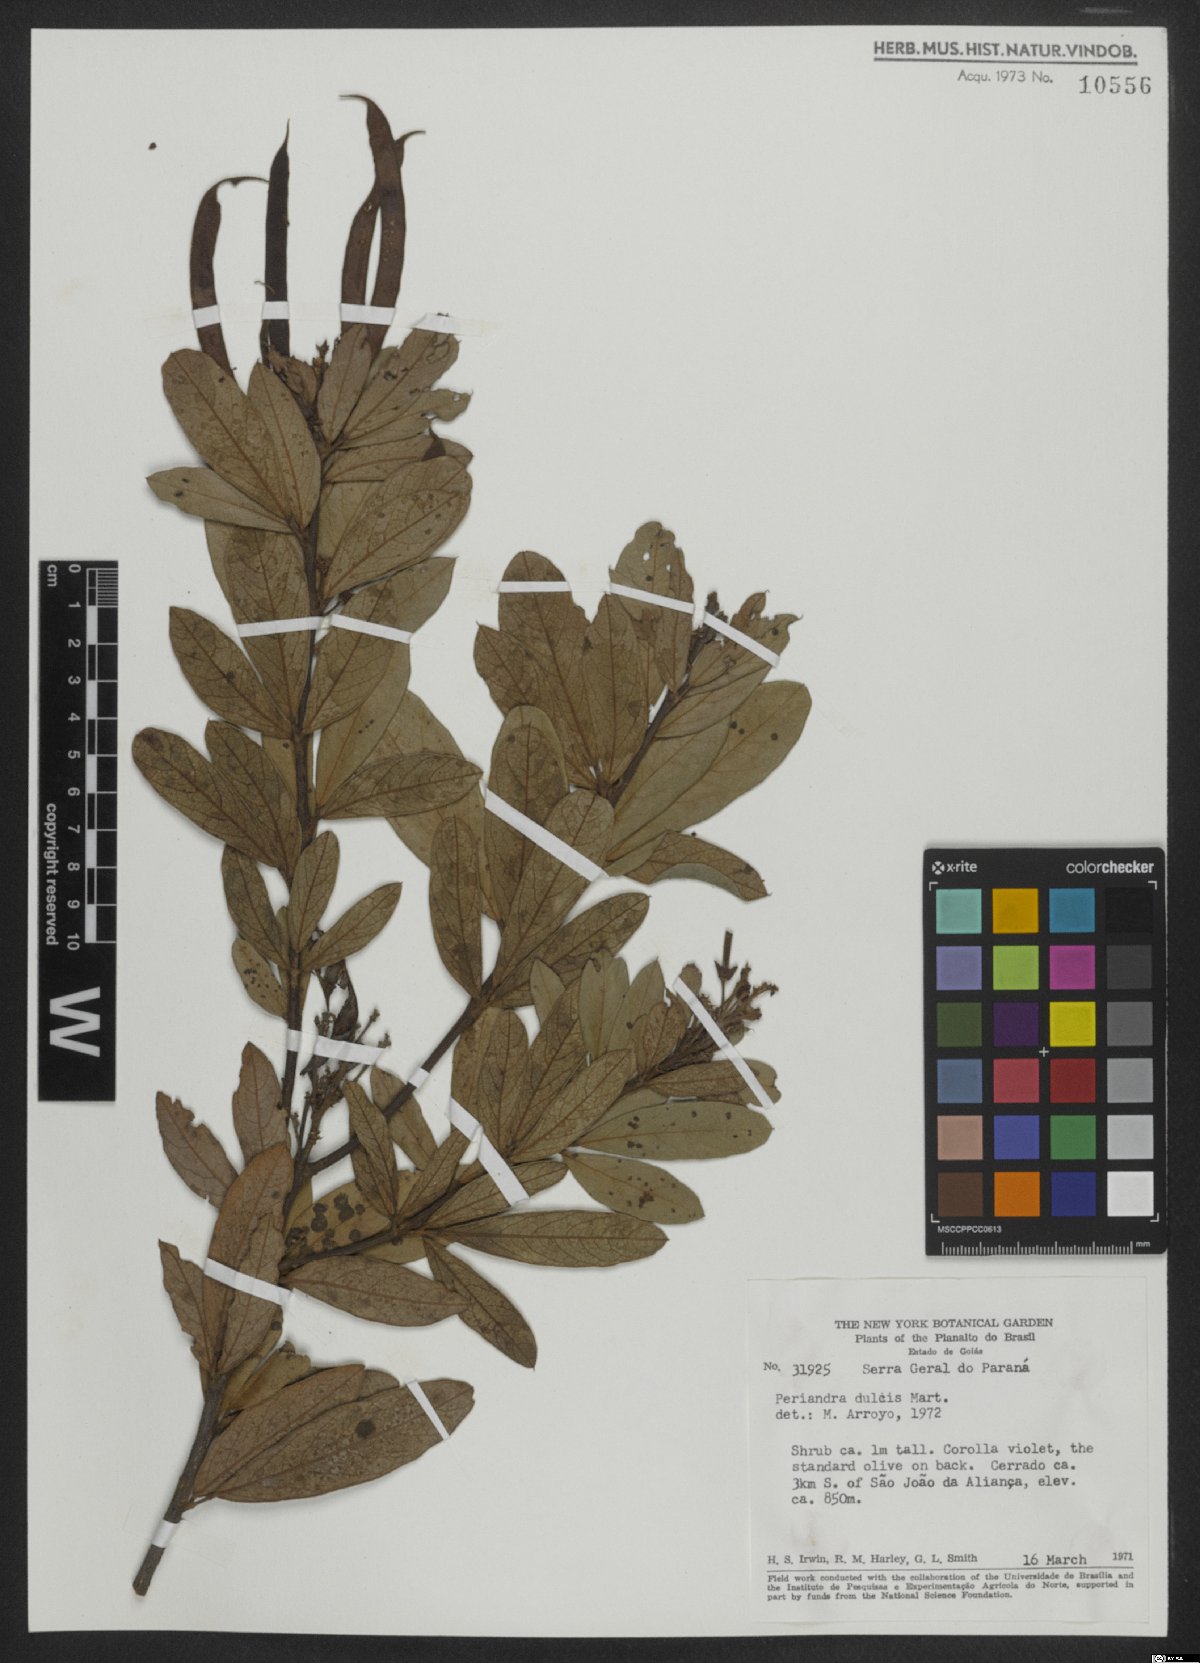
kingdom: Plantae
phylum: Tracheophyta
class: Magnoliopsida
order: Fabales
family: Fabaceae
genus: Periandra
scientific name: Periandra mediterranea
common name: Brazilian licorice
